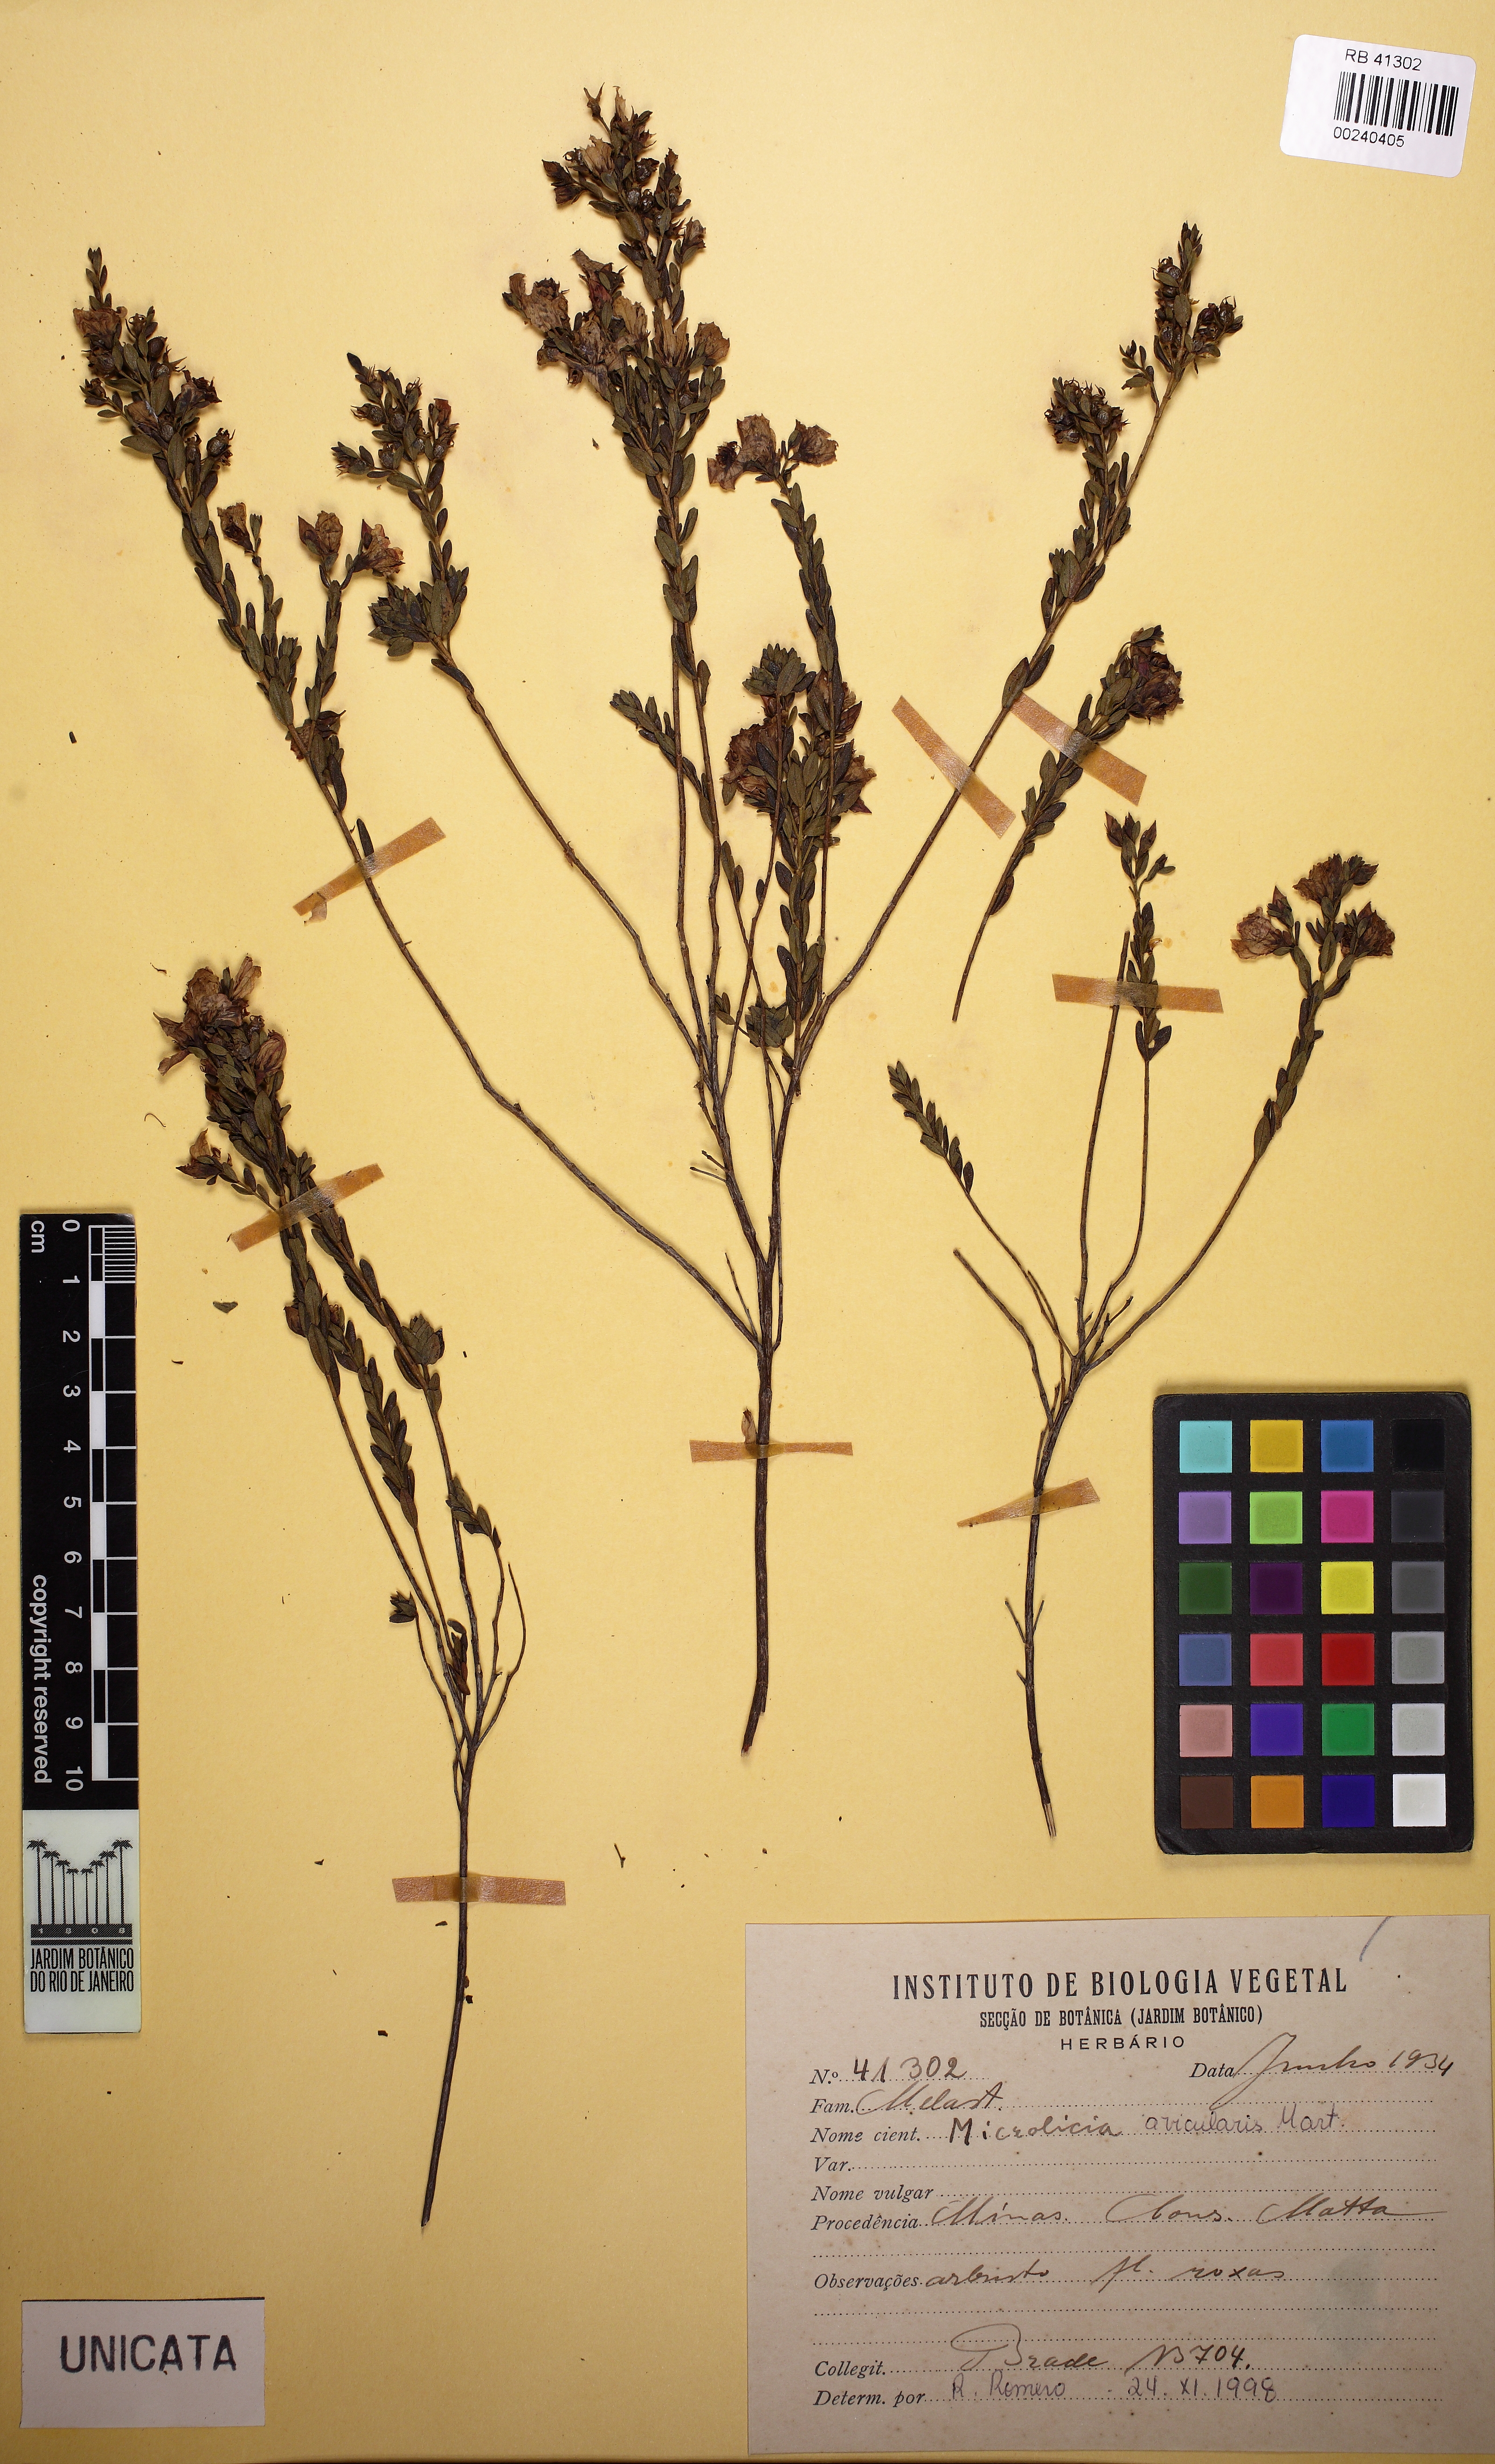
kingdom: Plantae
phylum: Tracheophyta
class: Magnoliopsida
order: Myrtales
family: Melastomataceae
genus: Microlicia
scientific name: Microlicia avicularis
